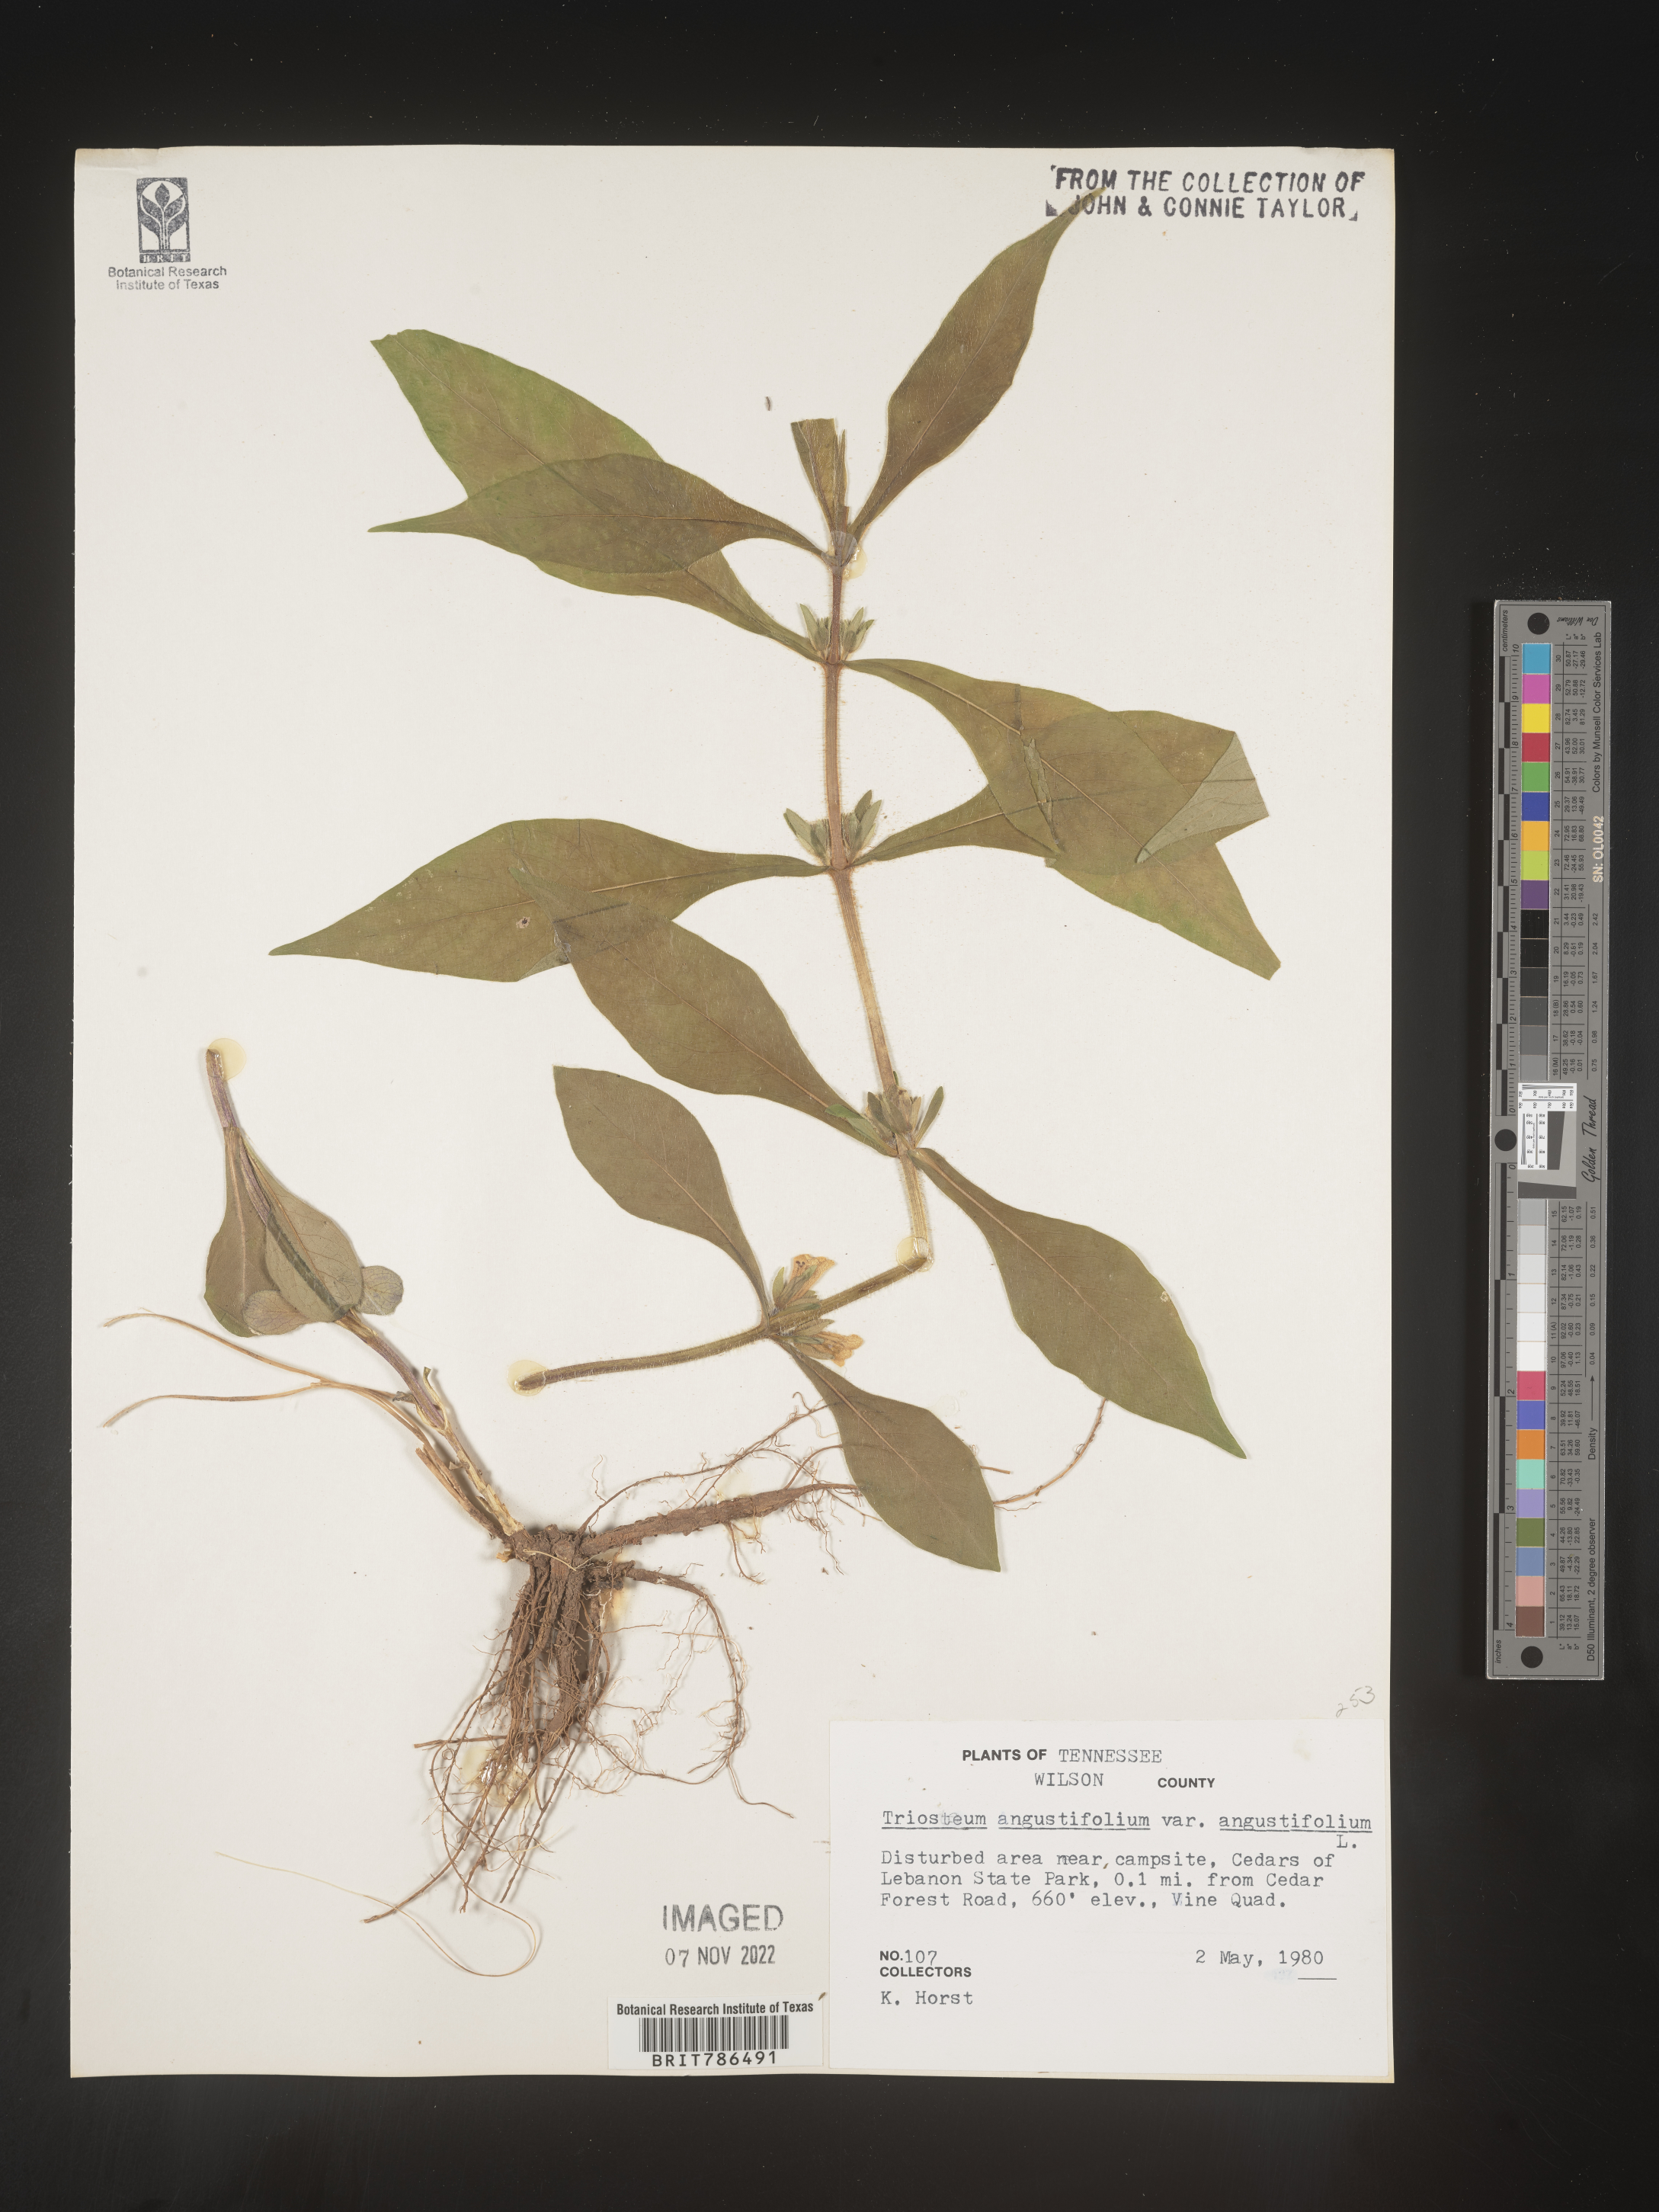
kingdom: Plantae
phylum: Tracheophyta
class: Magnoliopsida
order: Dipsacales
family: Caprifoliaceae
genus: Triosteum
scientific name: Triosteum angustifolium
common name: Narrow-leaved horse-gentian
